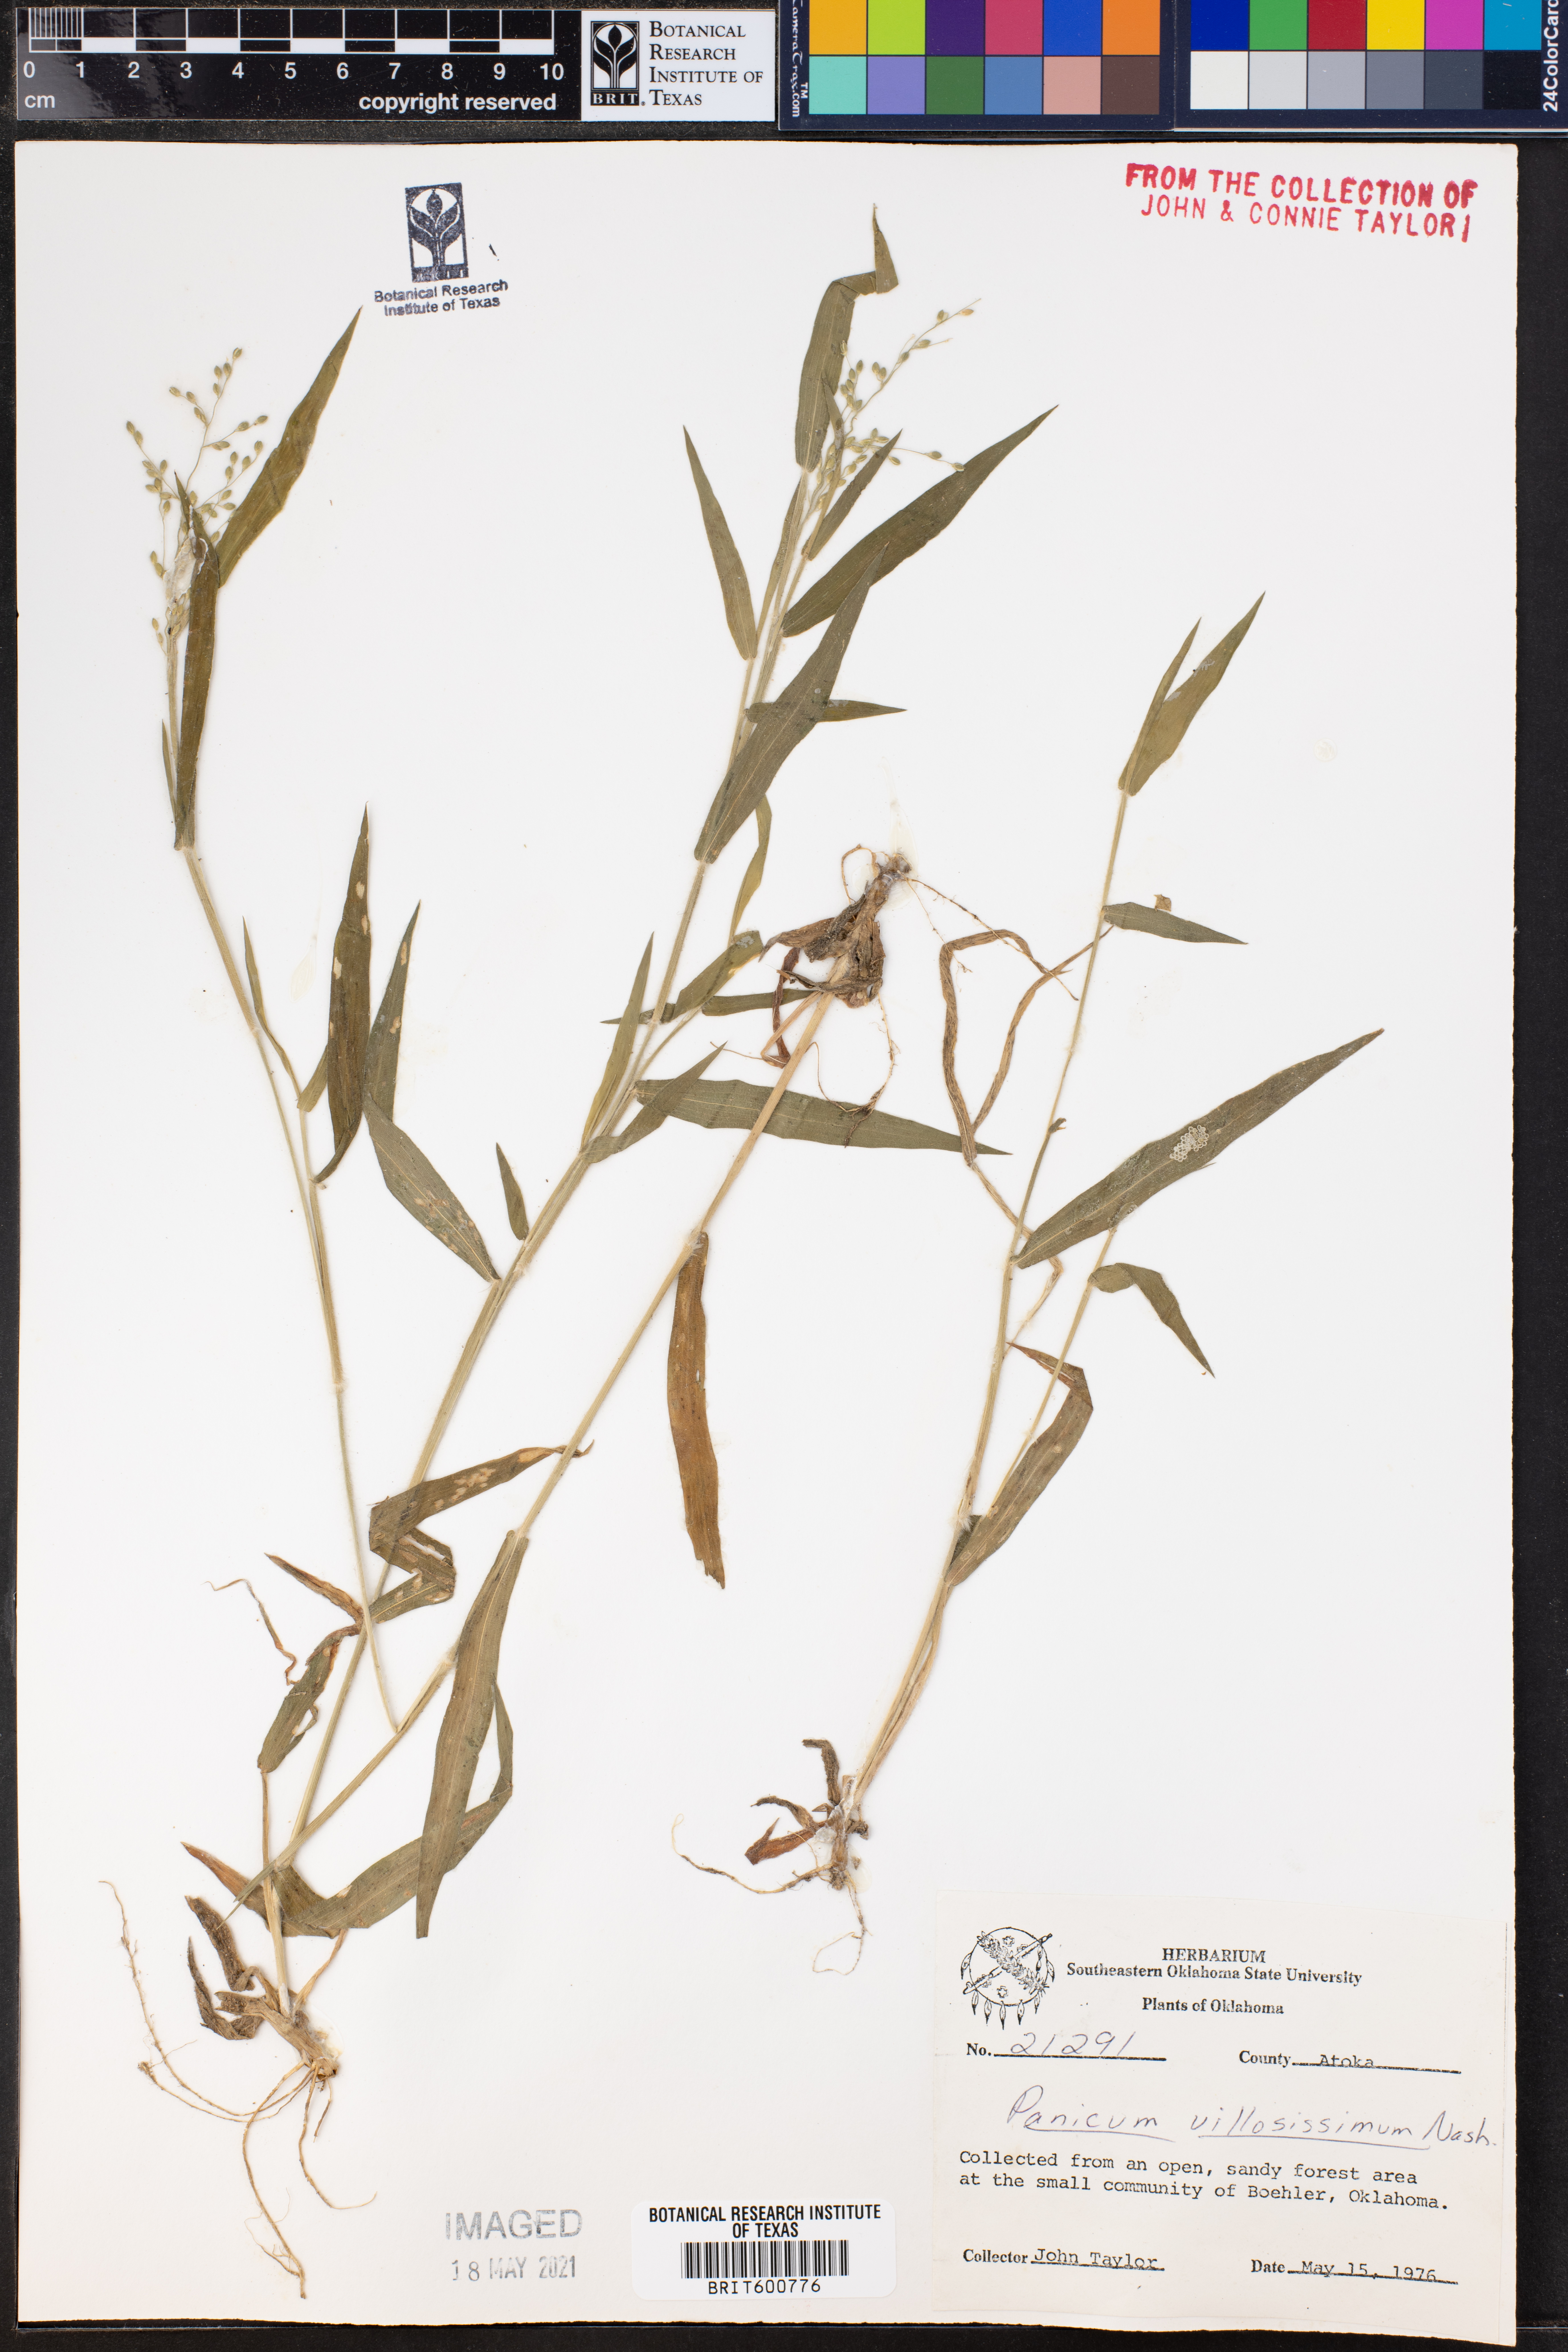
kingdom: Plantae
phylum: Tracheophyta
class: Liliopsida
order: Poales
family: Poaceae
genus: Dichanthelium
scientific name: Dichanthelium villosissimum
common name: White-haired panicgrass
